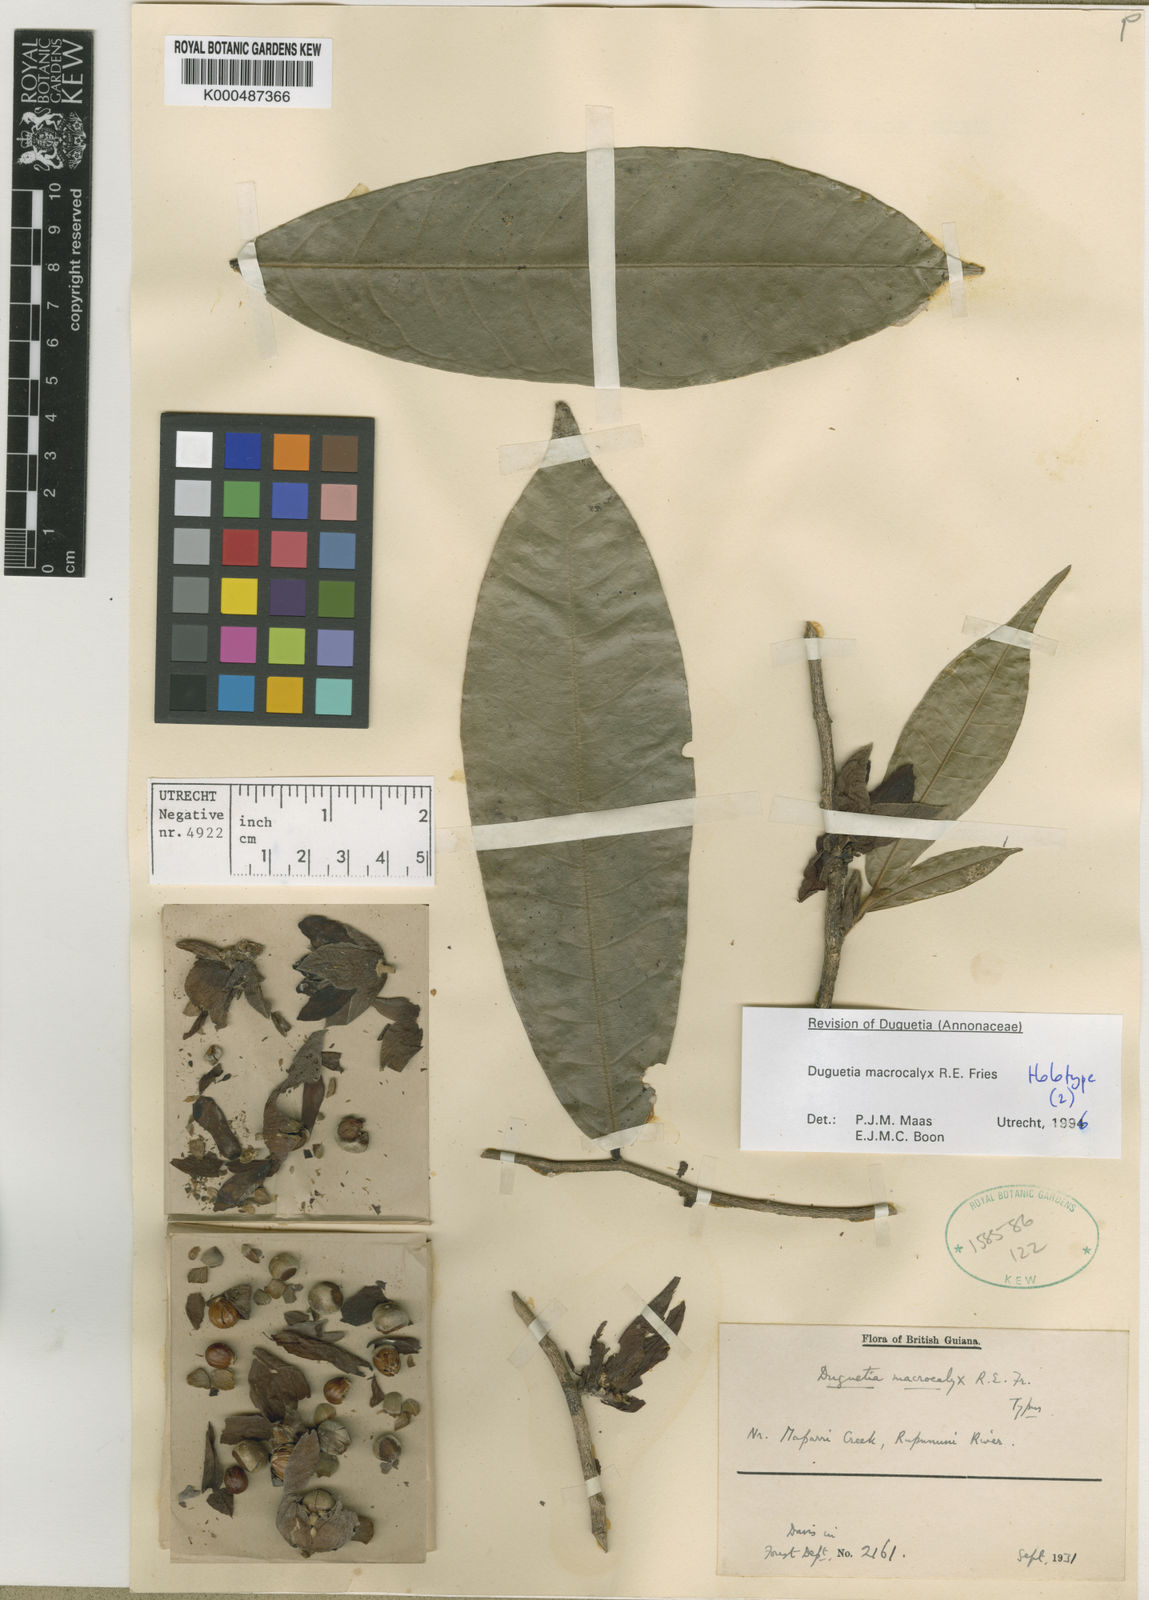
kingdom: Plantae
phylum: Tracheophyta
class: Magnoliopsida
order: Magnoliales
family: Annonaceae
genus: Duguetia
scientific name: Duguetia macrocalyx
